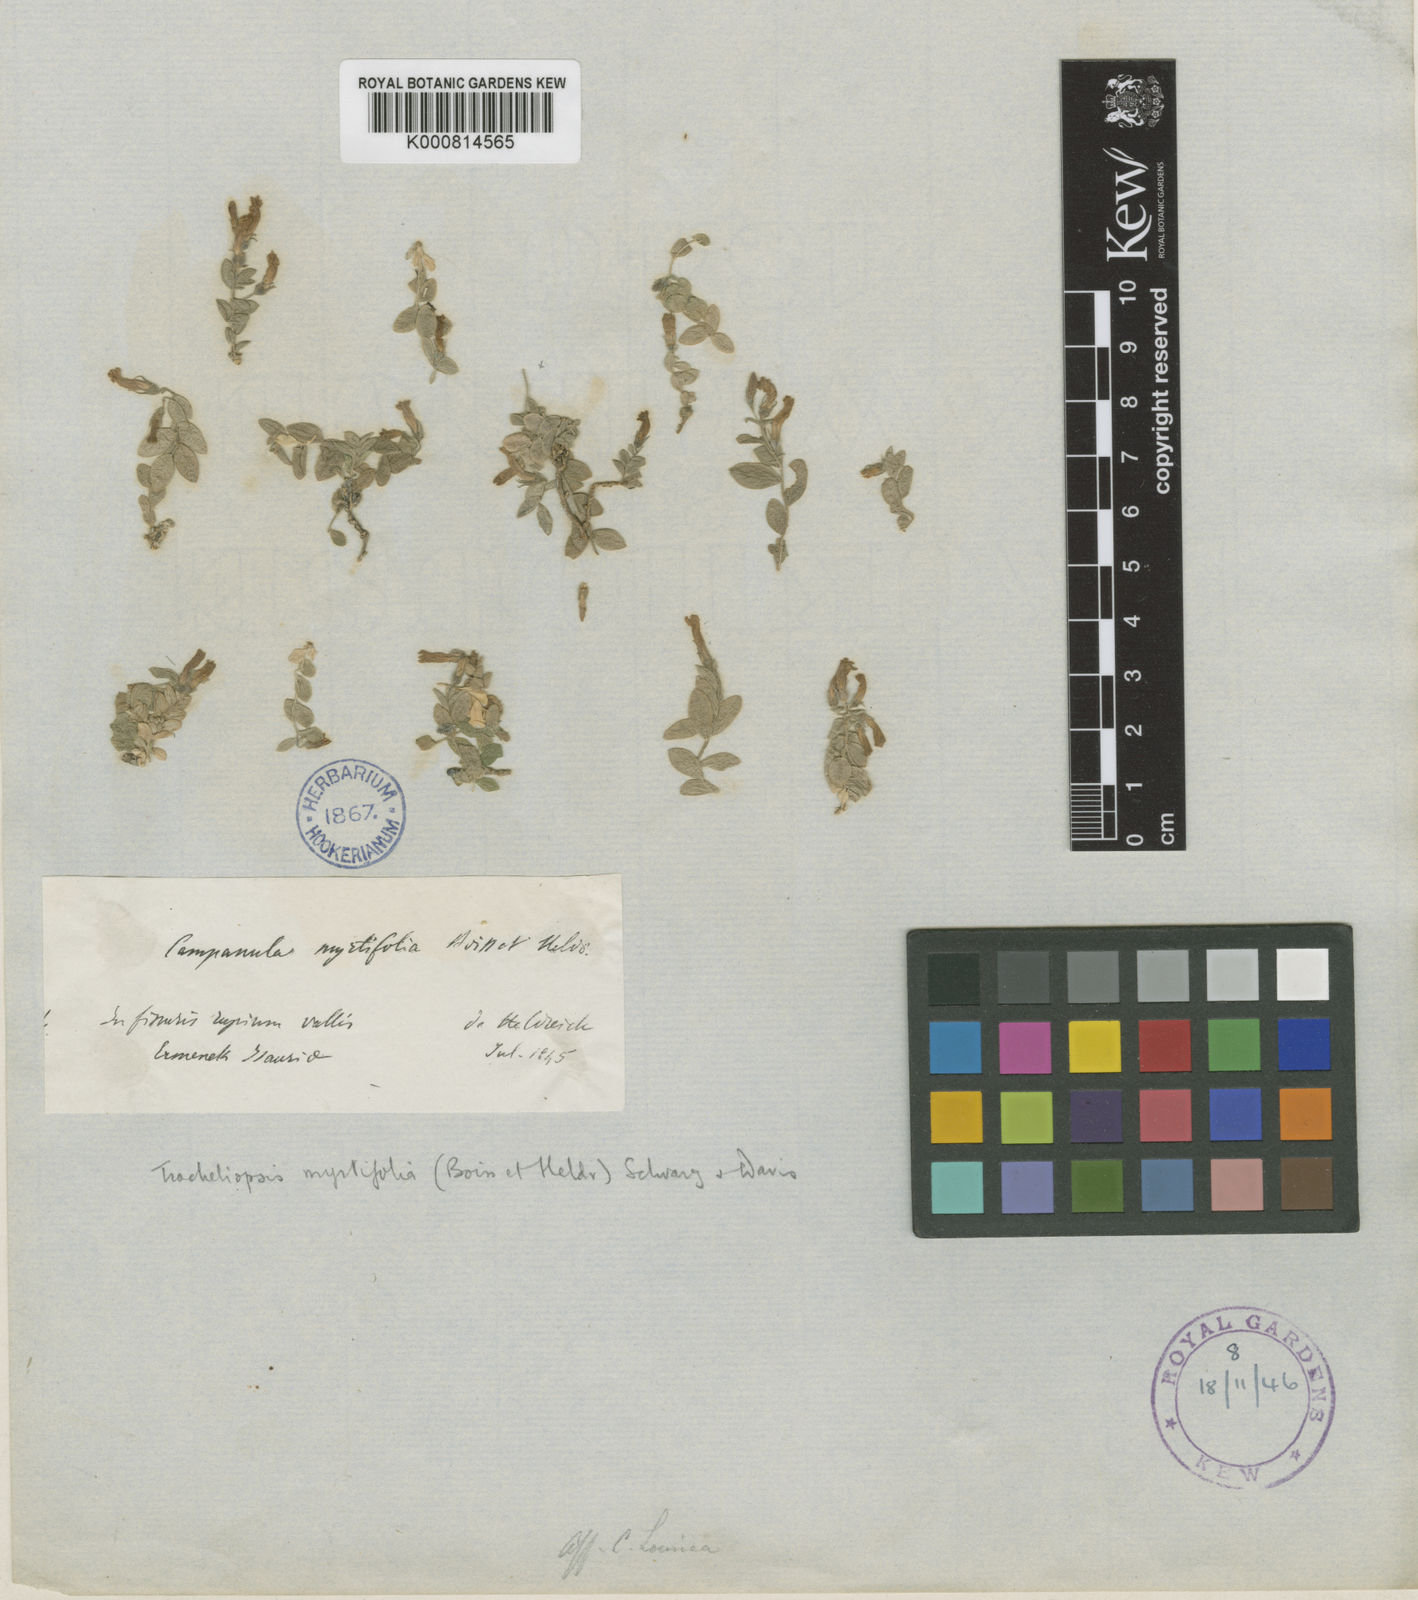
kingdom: Plantae
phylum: Tracheophyta
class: Magnoliopsida
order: Asterales
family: Campanulaceae
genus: Campanula
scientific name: Campanula myrtifolia
